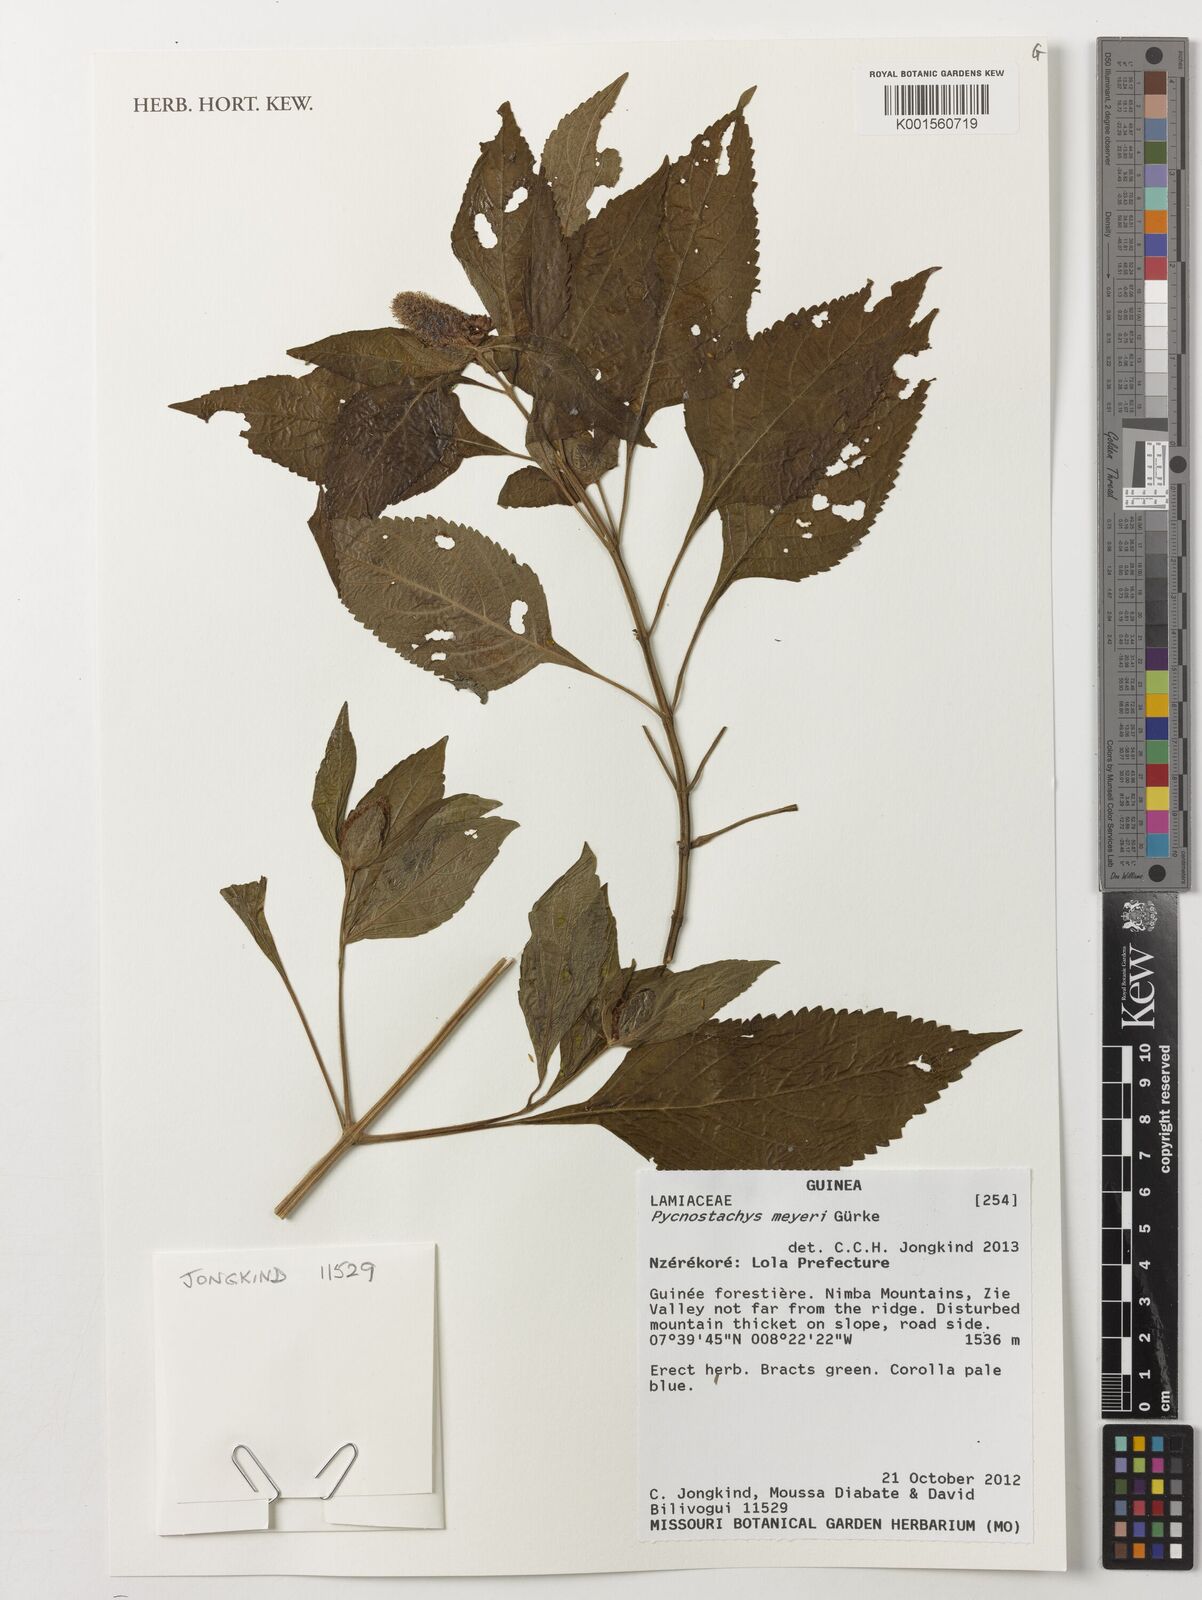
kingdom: Plantae
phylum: Tracheophyta
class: Magnoliopsida
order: Lamiales
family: Lamiaceae
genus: Coleus
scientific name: Coleus meyeri
